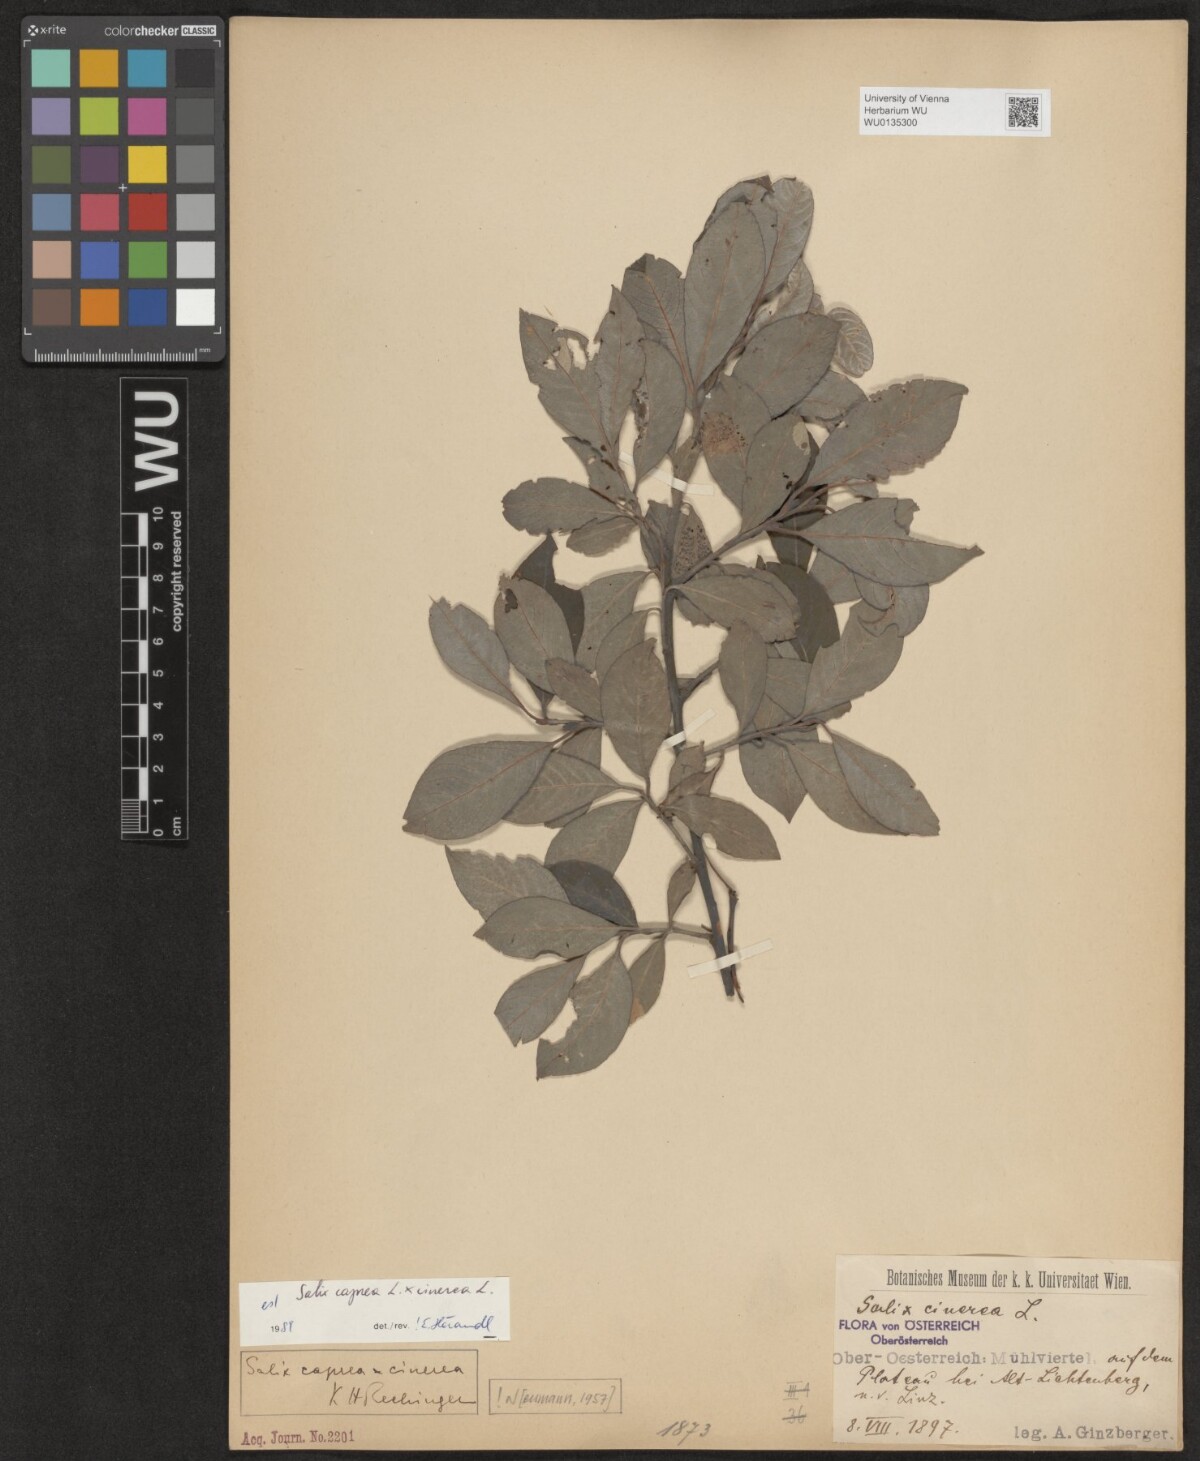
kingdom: Plantae
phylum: Tracheophyta
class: Magnoliopsida
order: Malpighiales
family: Salicaceae
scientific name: Salicaceae
